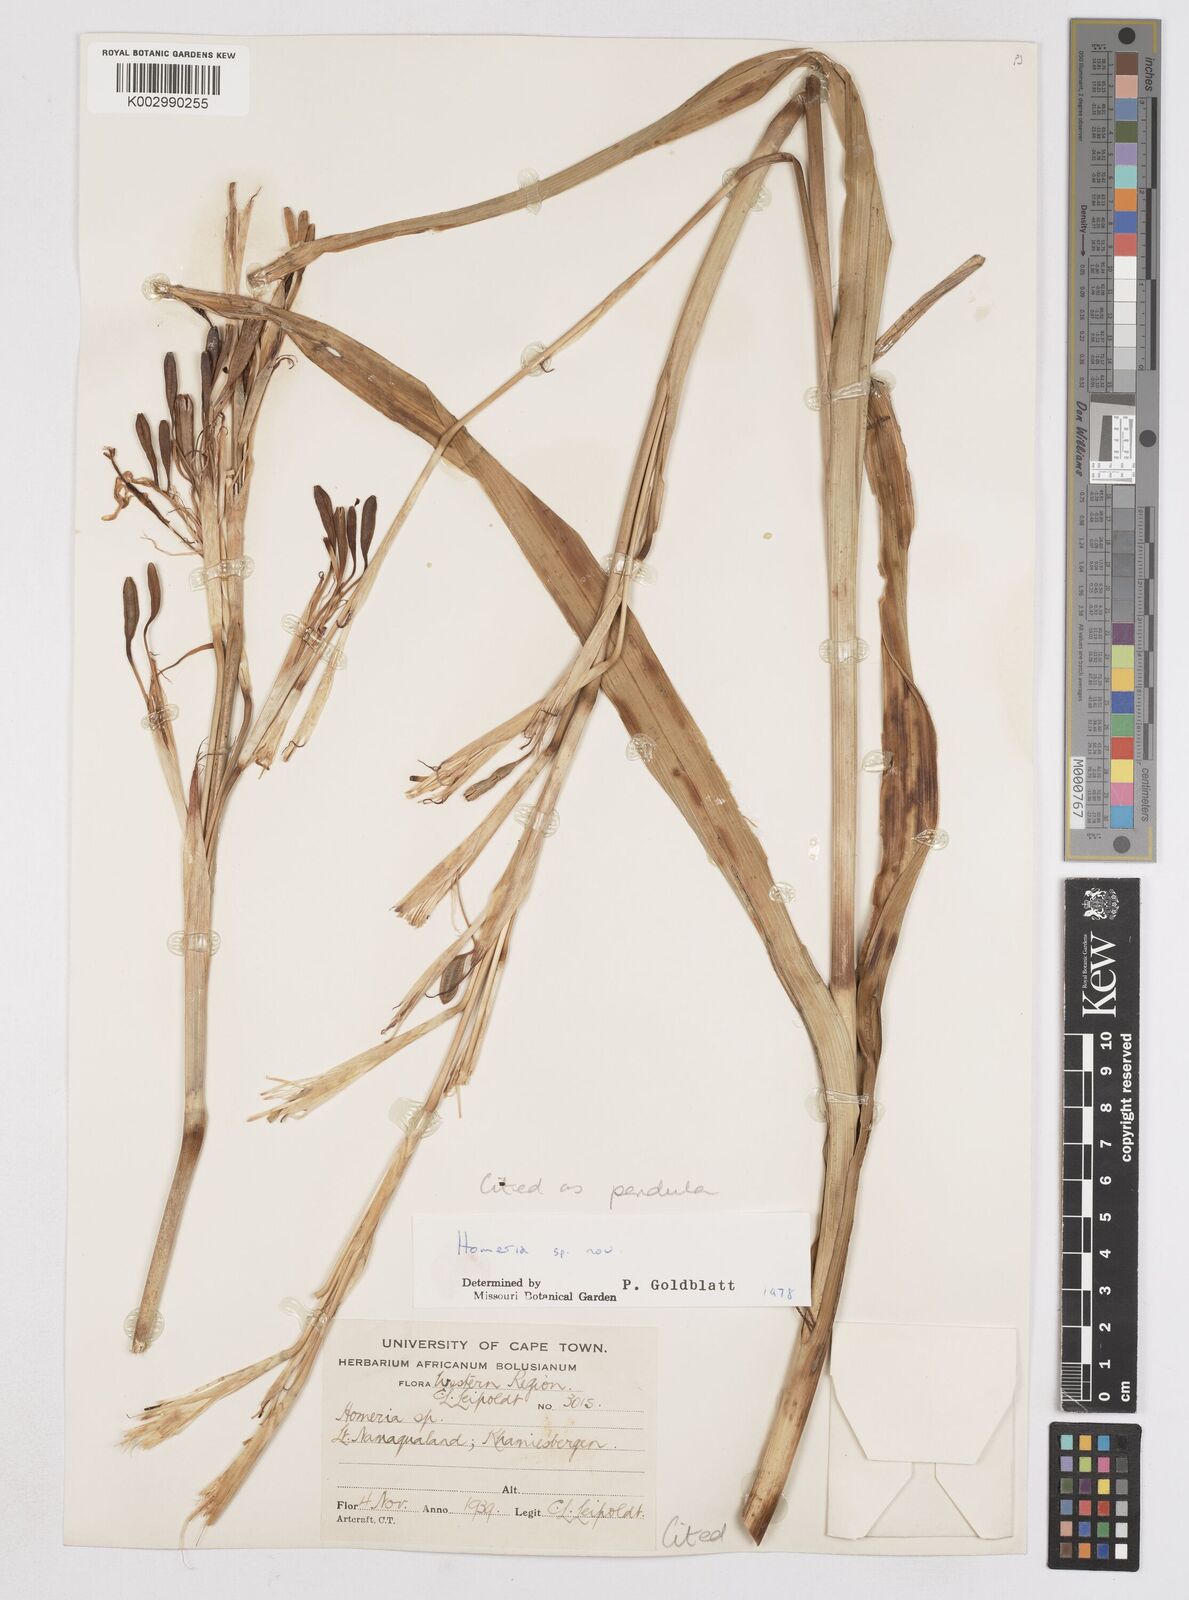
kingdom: Plantae
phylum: Tracheophyta
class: Liliopsida
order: Asparagales
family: Iridaceae
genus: Moraea
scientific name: Moraea pendula
